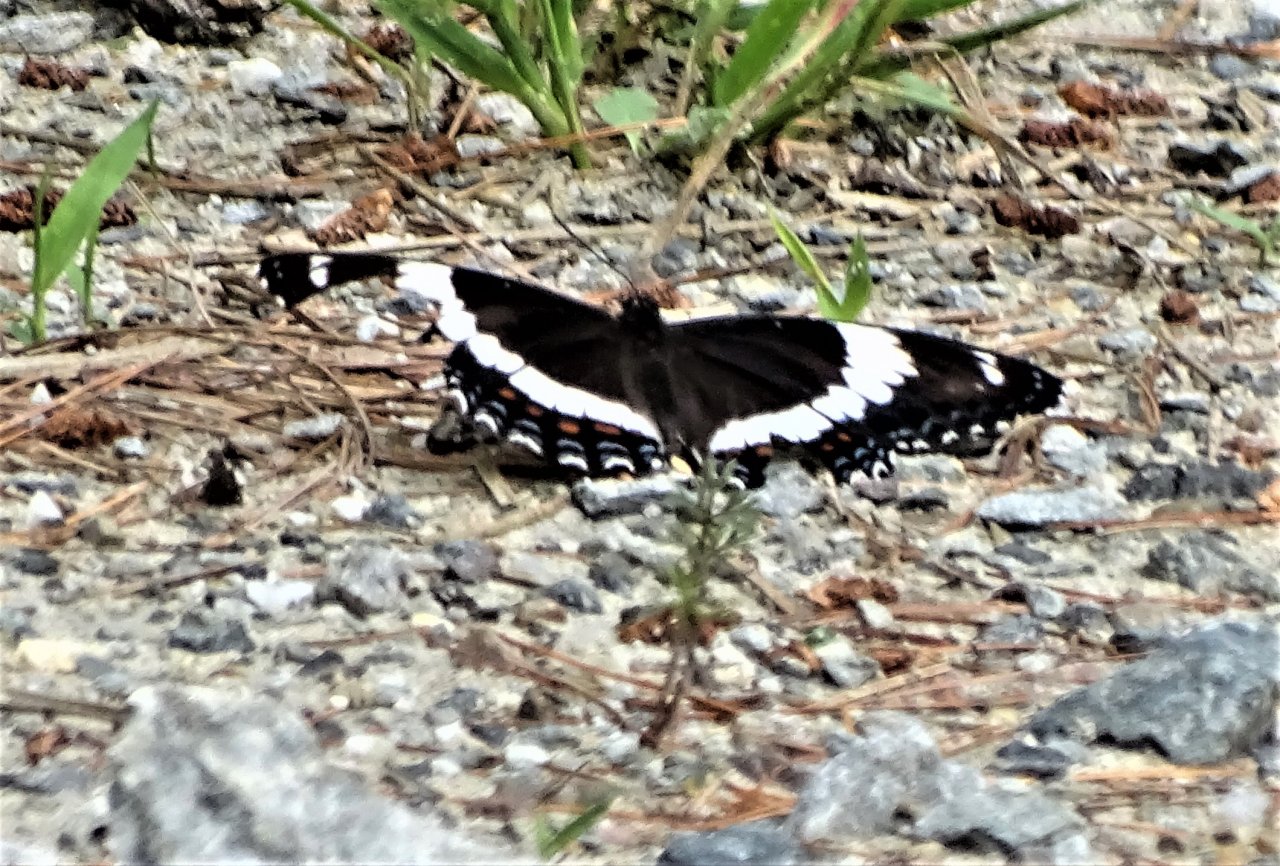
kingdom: Animalia
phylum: Arthropoda
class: Insecta
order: Lepidoptera
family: Nymphalidae
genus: Limenitis
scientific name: Limenitis arthemis
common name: Red-spotted Admiral
